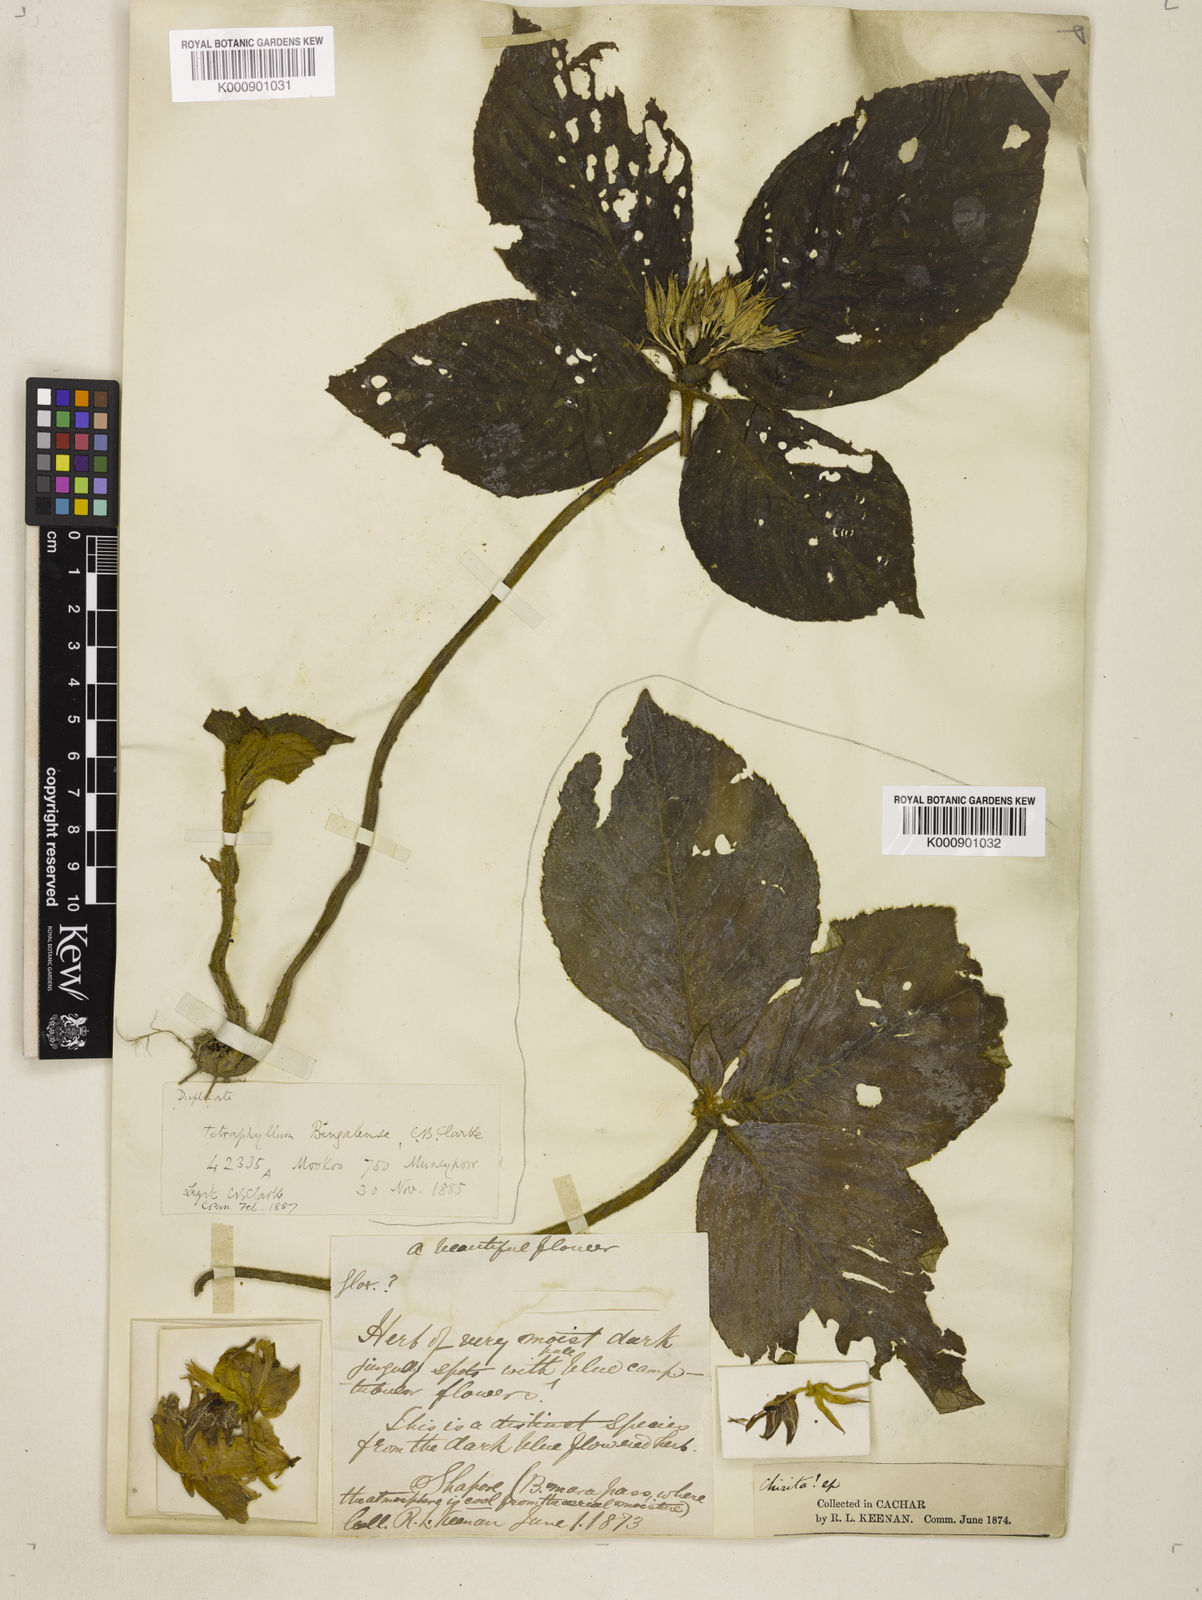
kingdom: Plantae
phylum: Tracheophyta
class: Magnoliopsida
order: Lamiales
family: Gesneriaceae
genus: Tetraphylloides
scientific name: Tetraphylloides bengalensis
